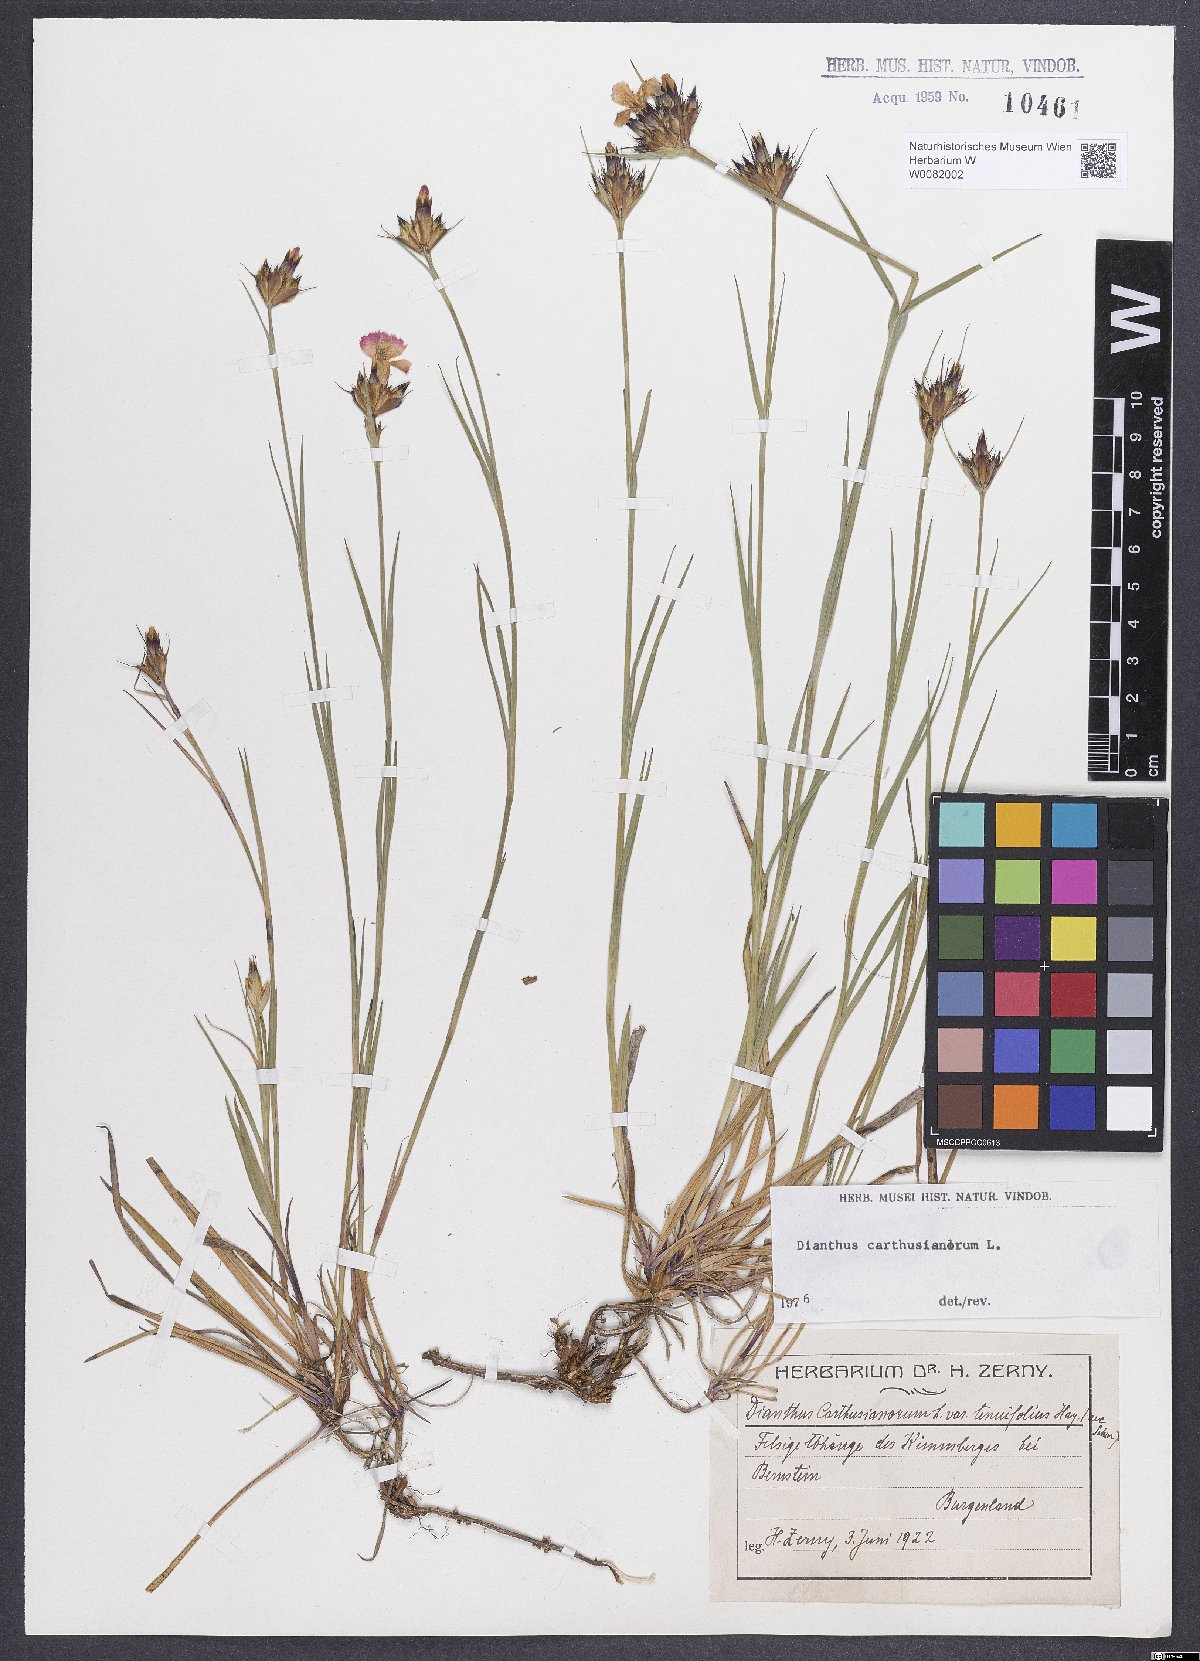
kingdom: Plantae
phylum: Tracheophyta
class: Magnoliopsida
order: Caryophyllales
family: Caryophyllaceae
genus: Dianthus
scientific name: Dianthus carthusianorum
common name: Carthusian pink
